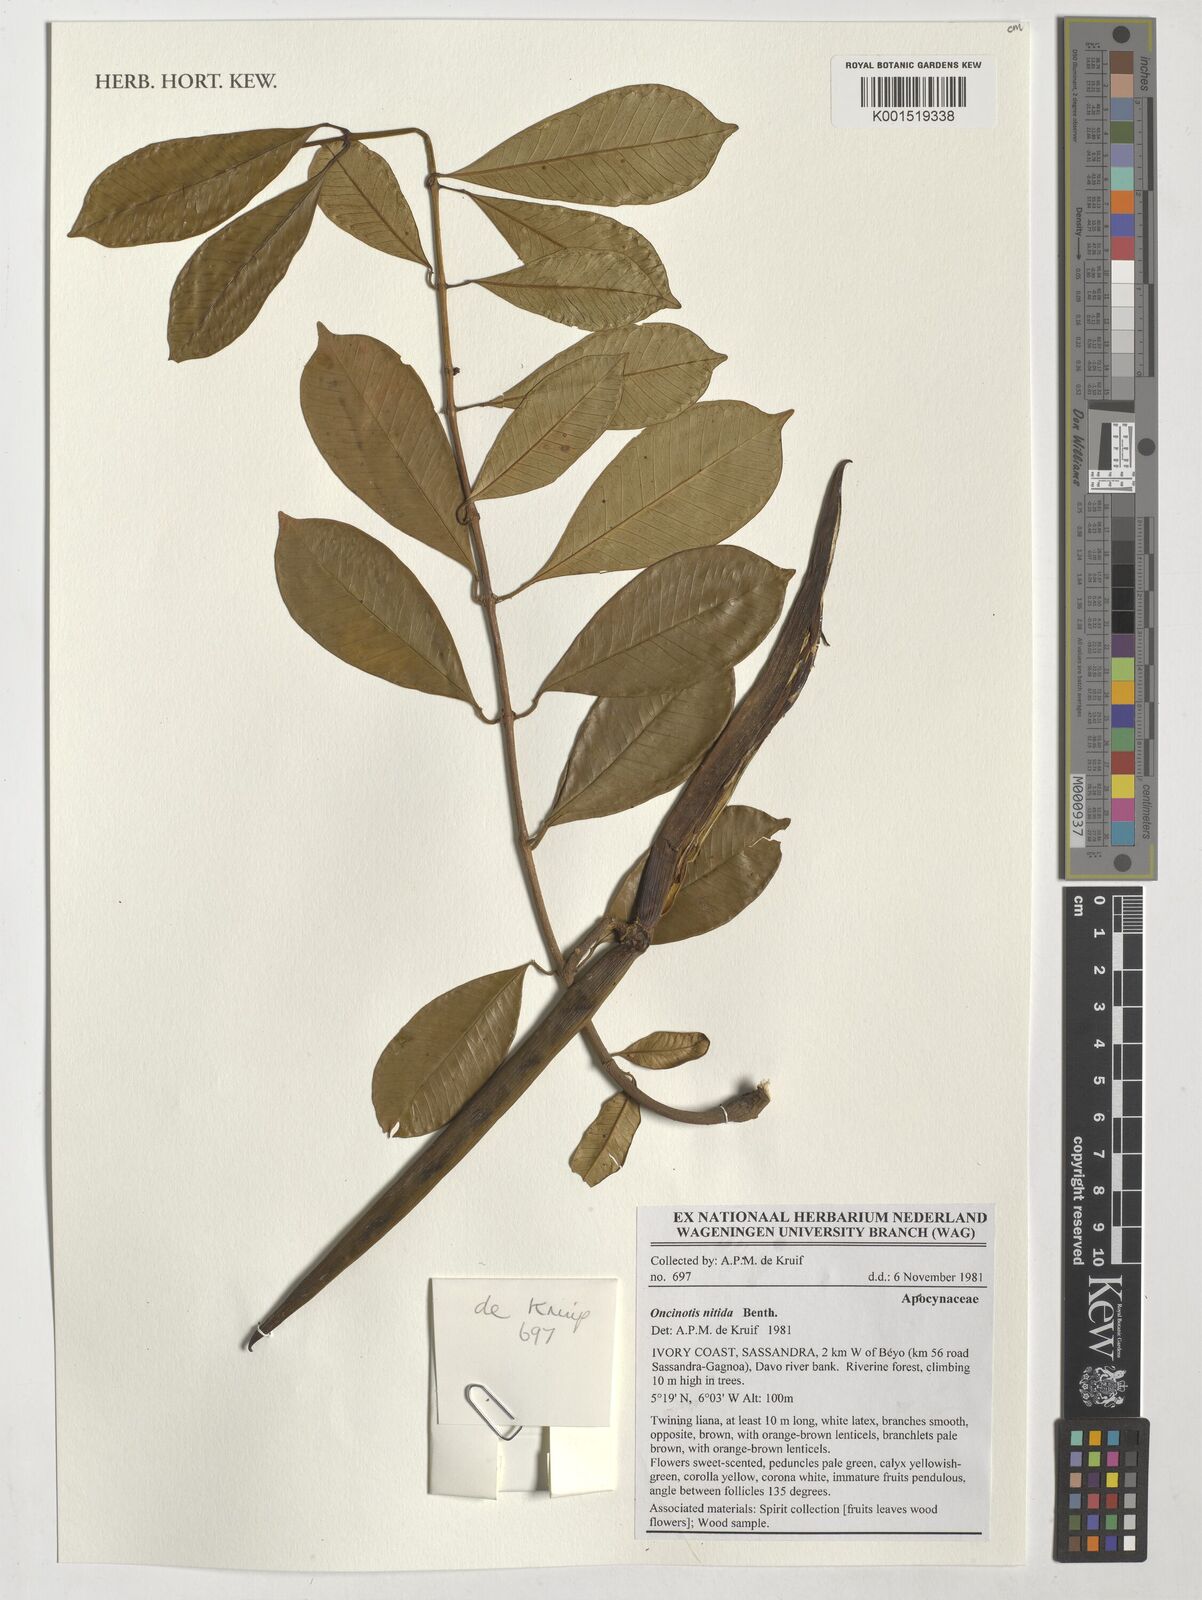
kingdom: Plantae
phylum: Tracheophyta
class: Magnoliopsida
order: Gentianales
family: Apocynaceae
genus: Oncinotis
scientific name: Oncinotis nitida
